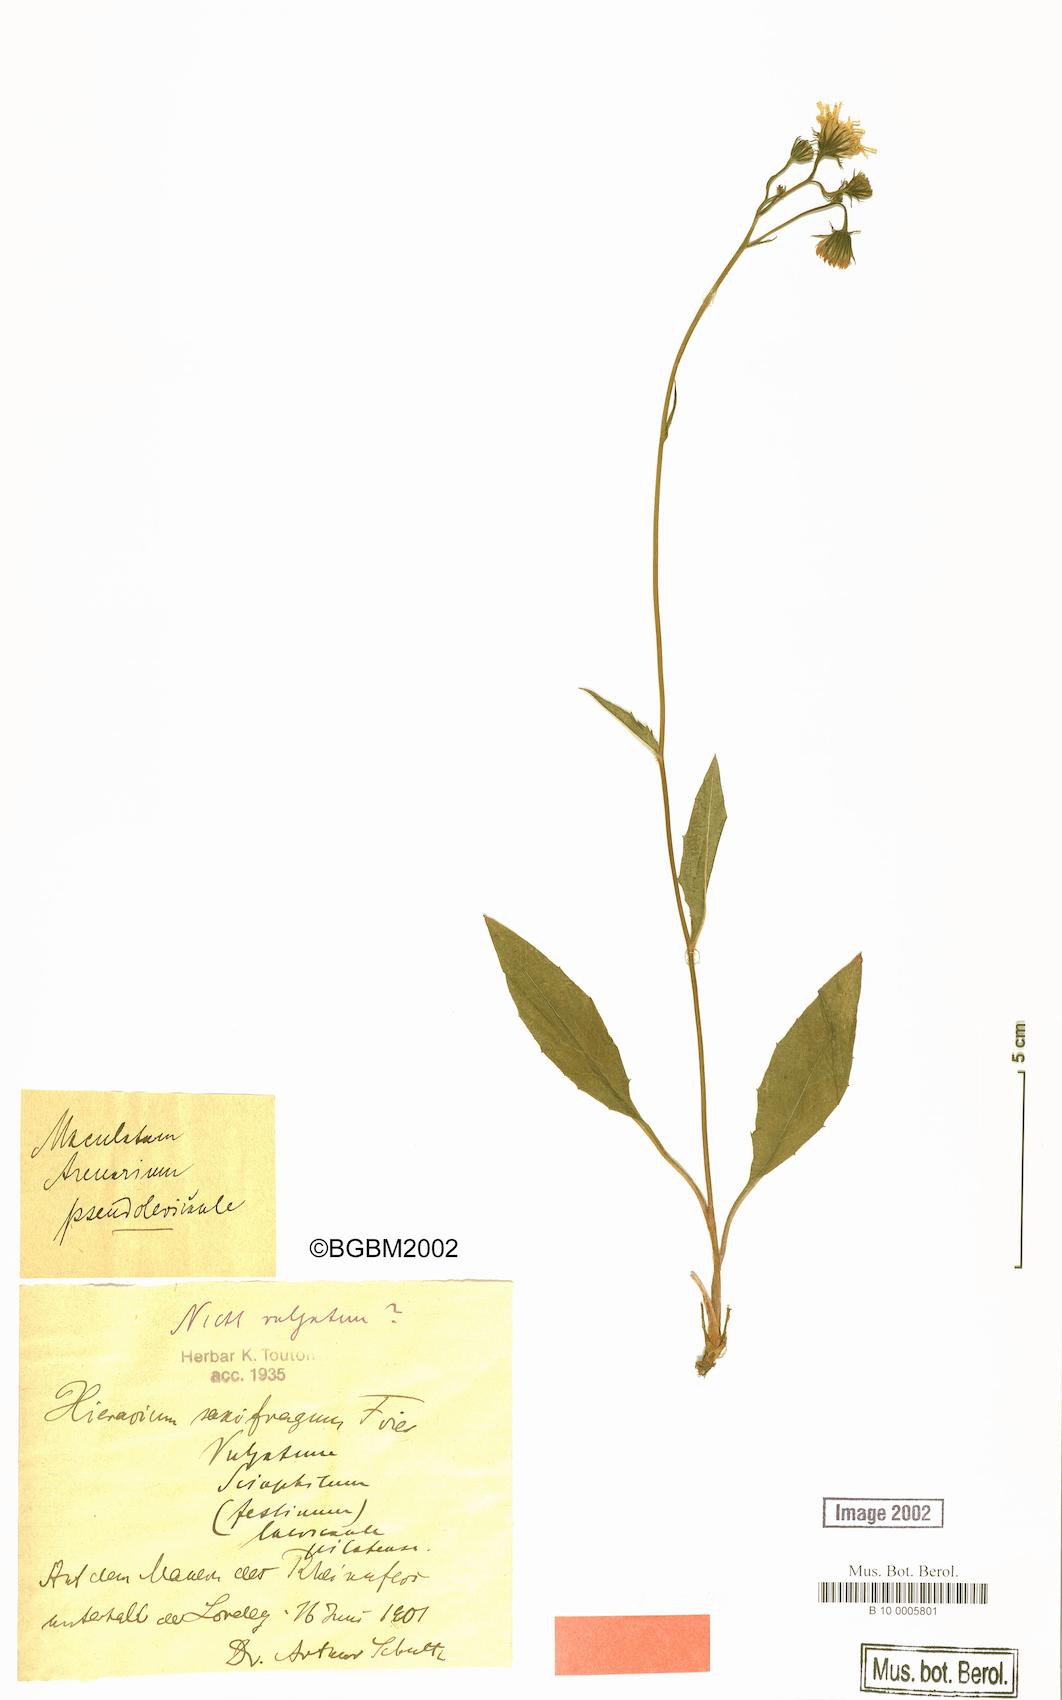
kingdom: Plantae
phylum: Tracheophyta
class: Magnoliopsida
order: Asterales
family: Asteraceae
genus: Hieracium
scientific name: Hieracium maculatum
